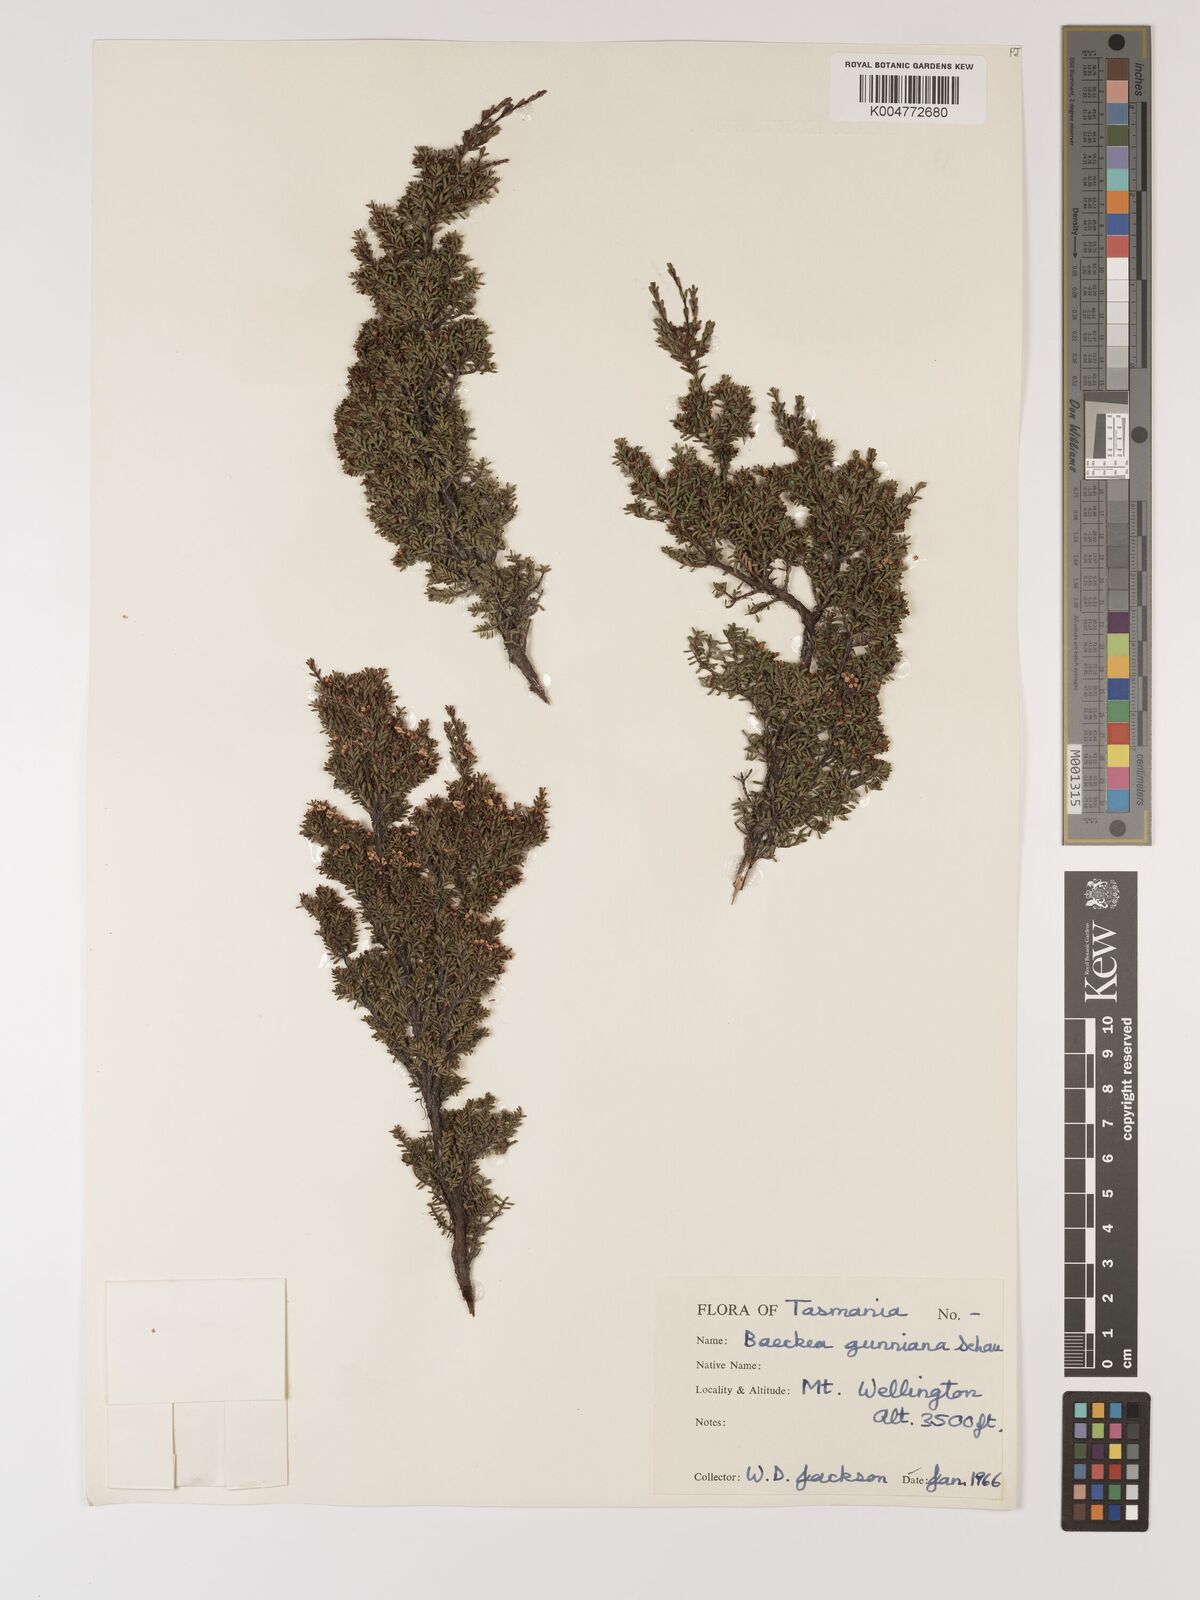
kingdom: Plantae
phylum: Tracheophyta
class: Magnoliopsida
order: Myrtales
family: Myrtaceae
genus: Baeckea
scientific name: Baeckea gunniana
